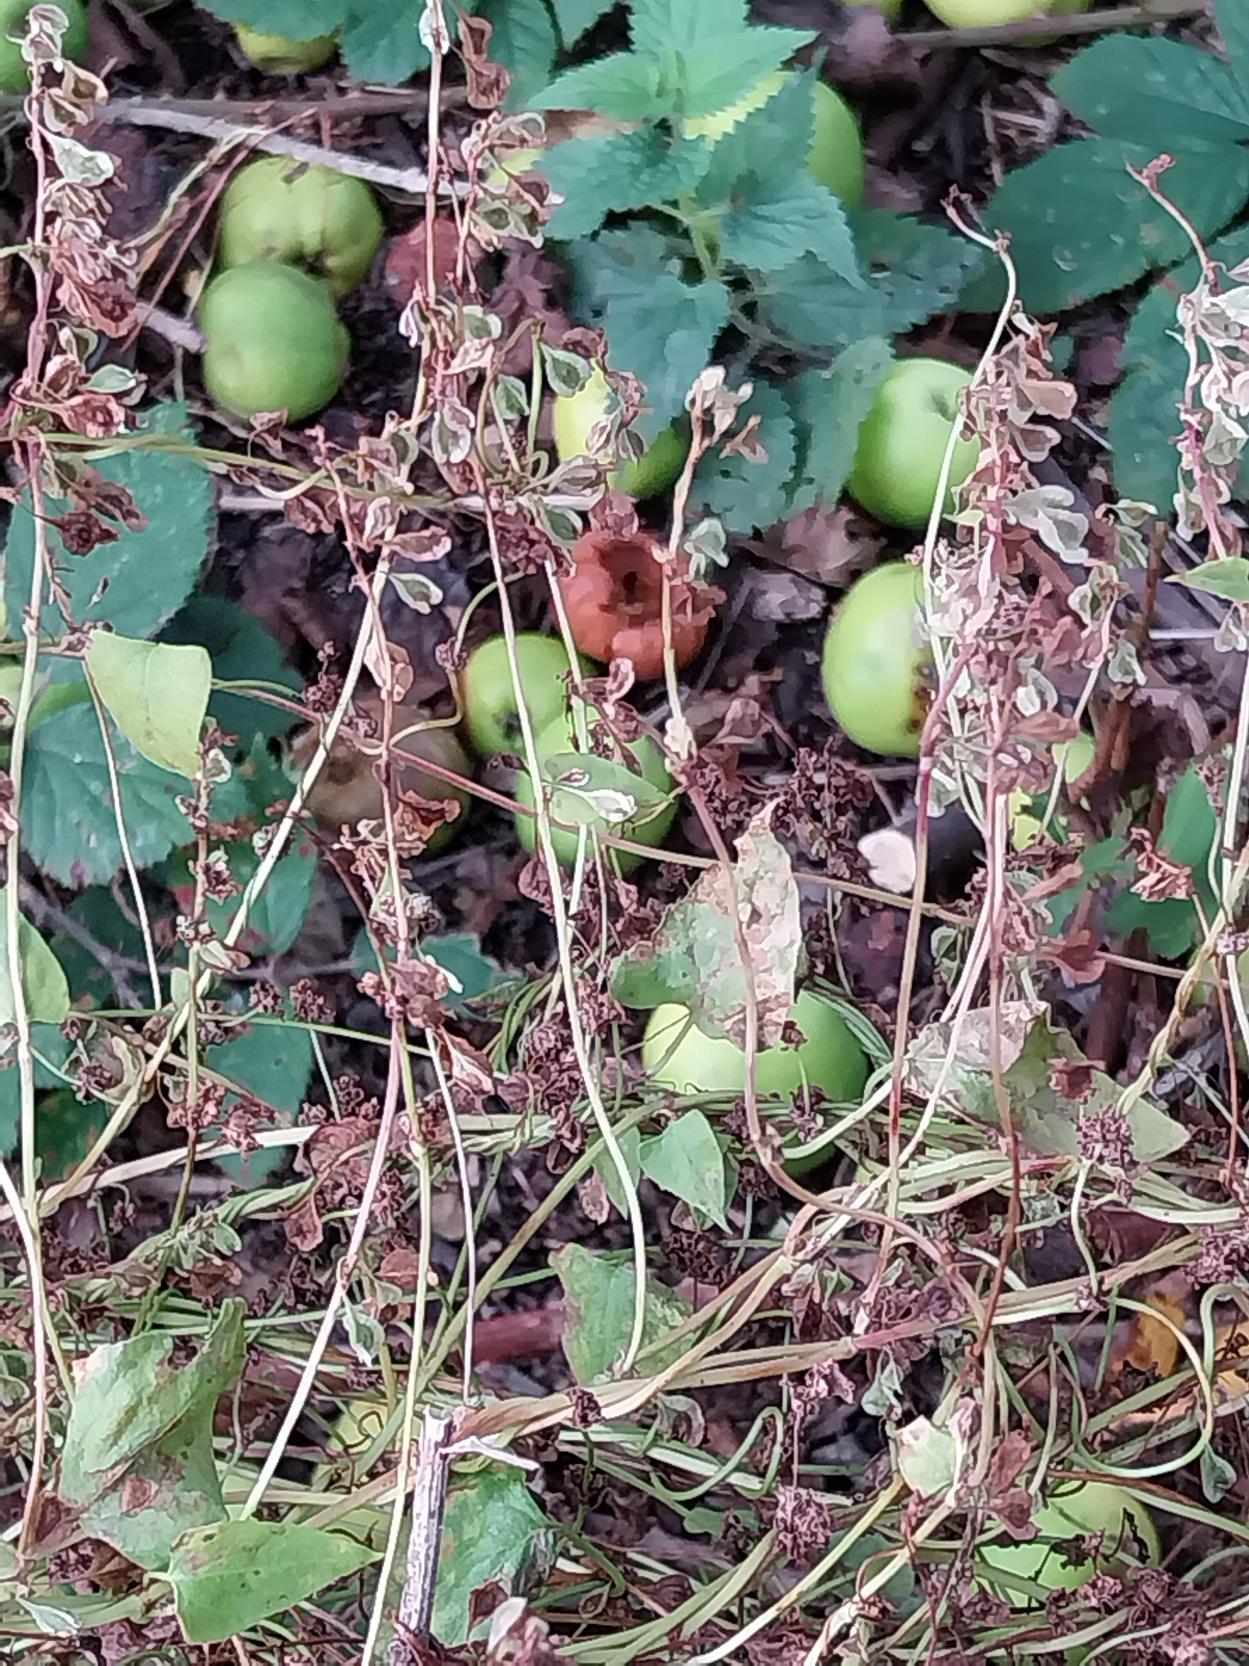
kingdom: Plantae
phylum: Tracheophyta
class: Magnoliopsida
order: Caryophyllales
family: Polygonaceae
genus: Fallopia
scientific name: Fallopia dumetorum
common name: Vinge-pileurt
